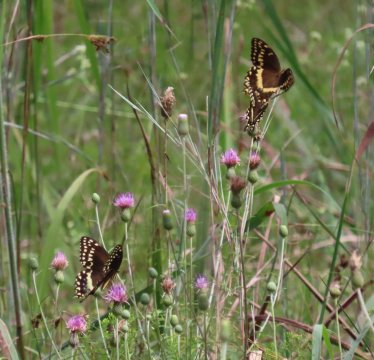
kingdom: Animalia
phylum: Arthropoda
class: Insecta
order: Lepidoptera
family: Papilionidae
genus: Pterourus
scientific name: Pterourus palamedes
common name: Palamedes Swallowtail
